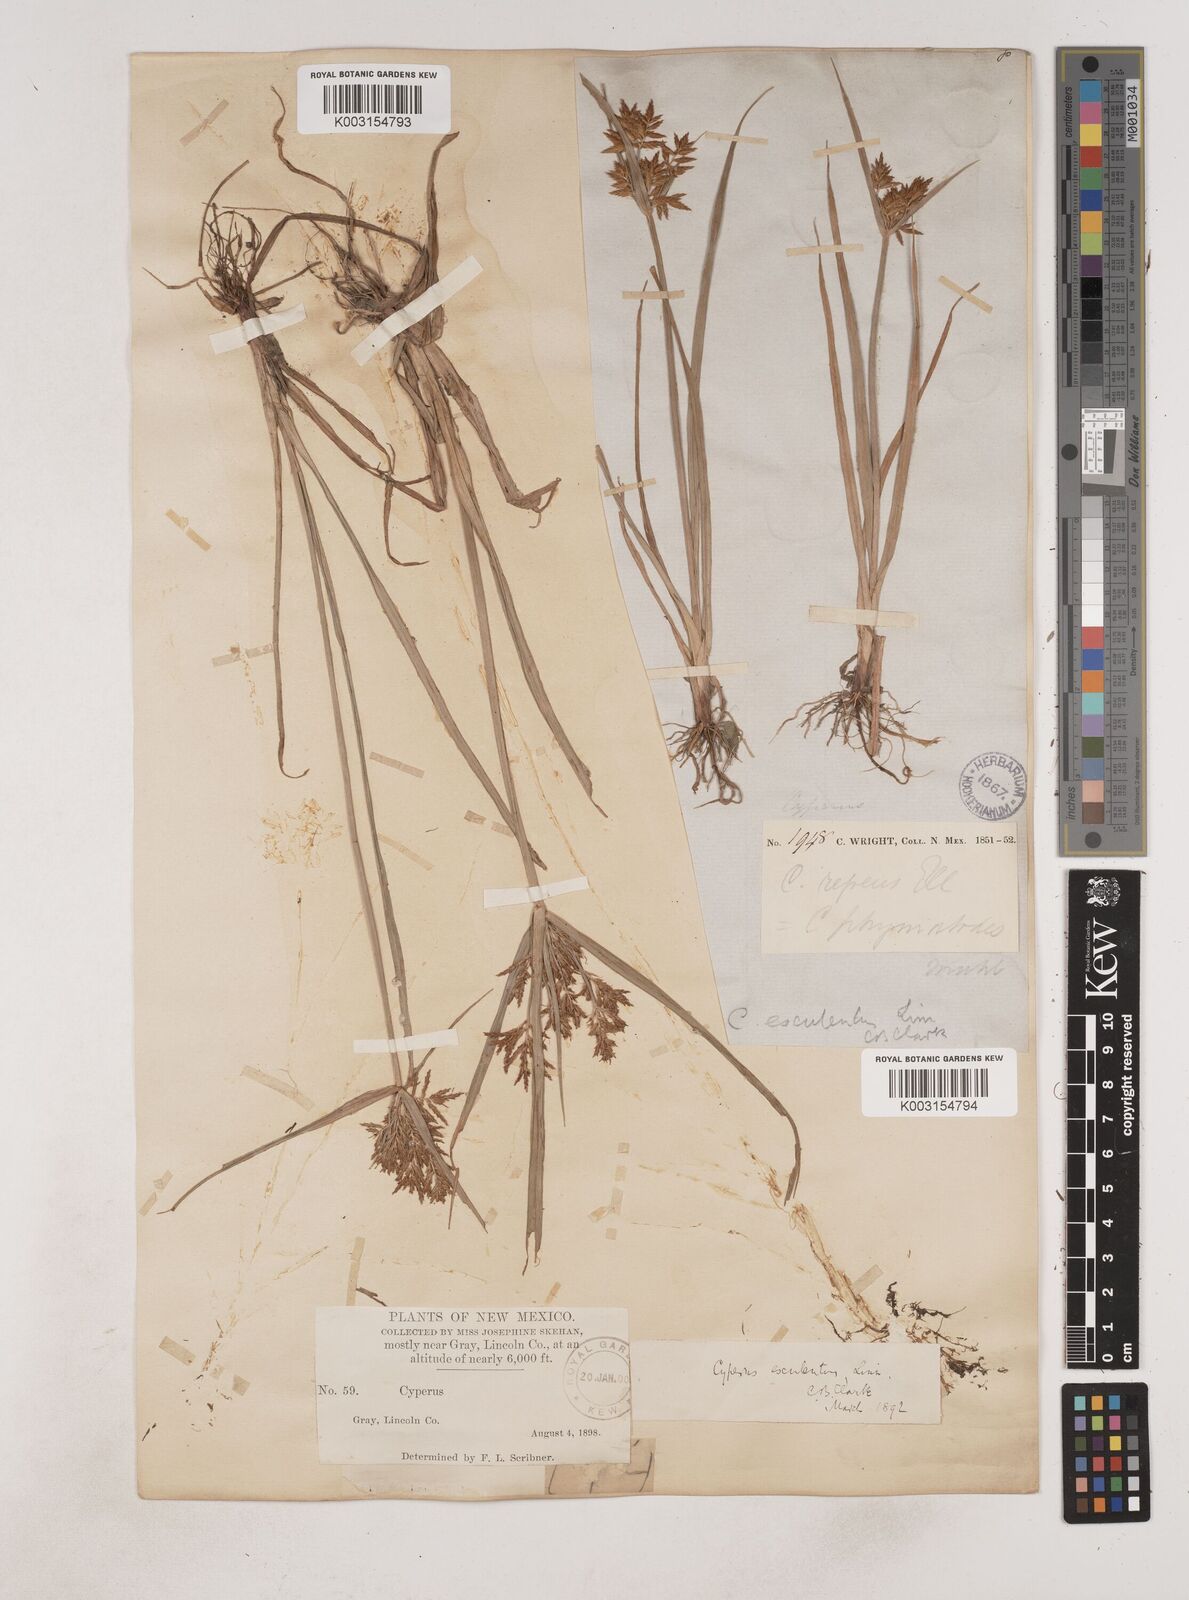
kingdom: Plantae
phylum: Tracheophyta
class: Liliopsida
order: Poales
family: Cyperaceae
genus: Cyperus
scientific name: Cyperus esculentus
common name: Yellow nutsedge
